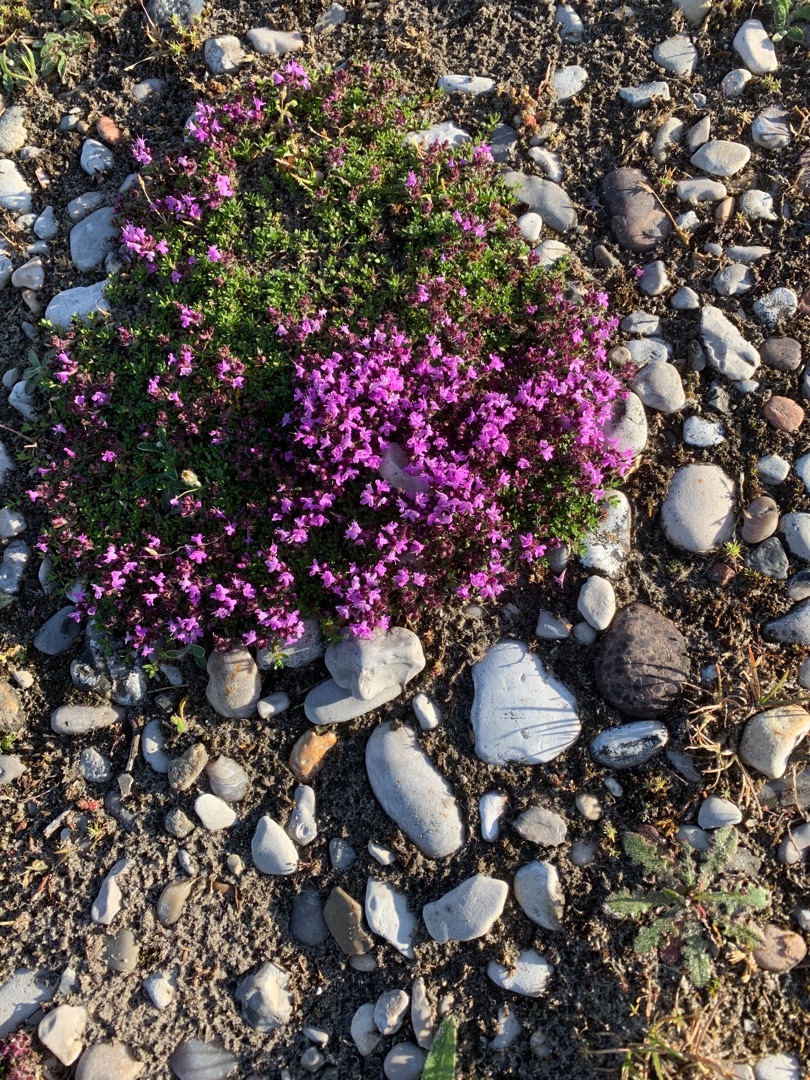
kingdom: Plantae
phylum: Tracheophyta
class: Magnoliopsida
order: Lamiales
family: Lamiaceae
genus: Thymus
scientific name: Thymus serpyllum
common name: Smalbladet timian
